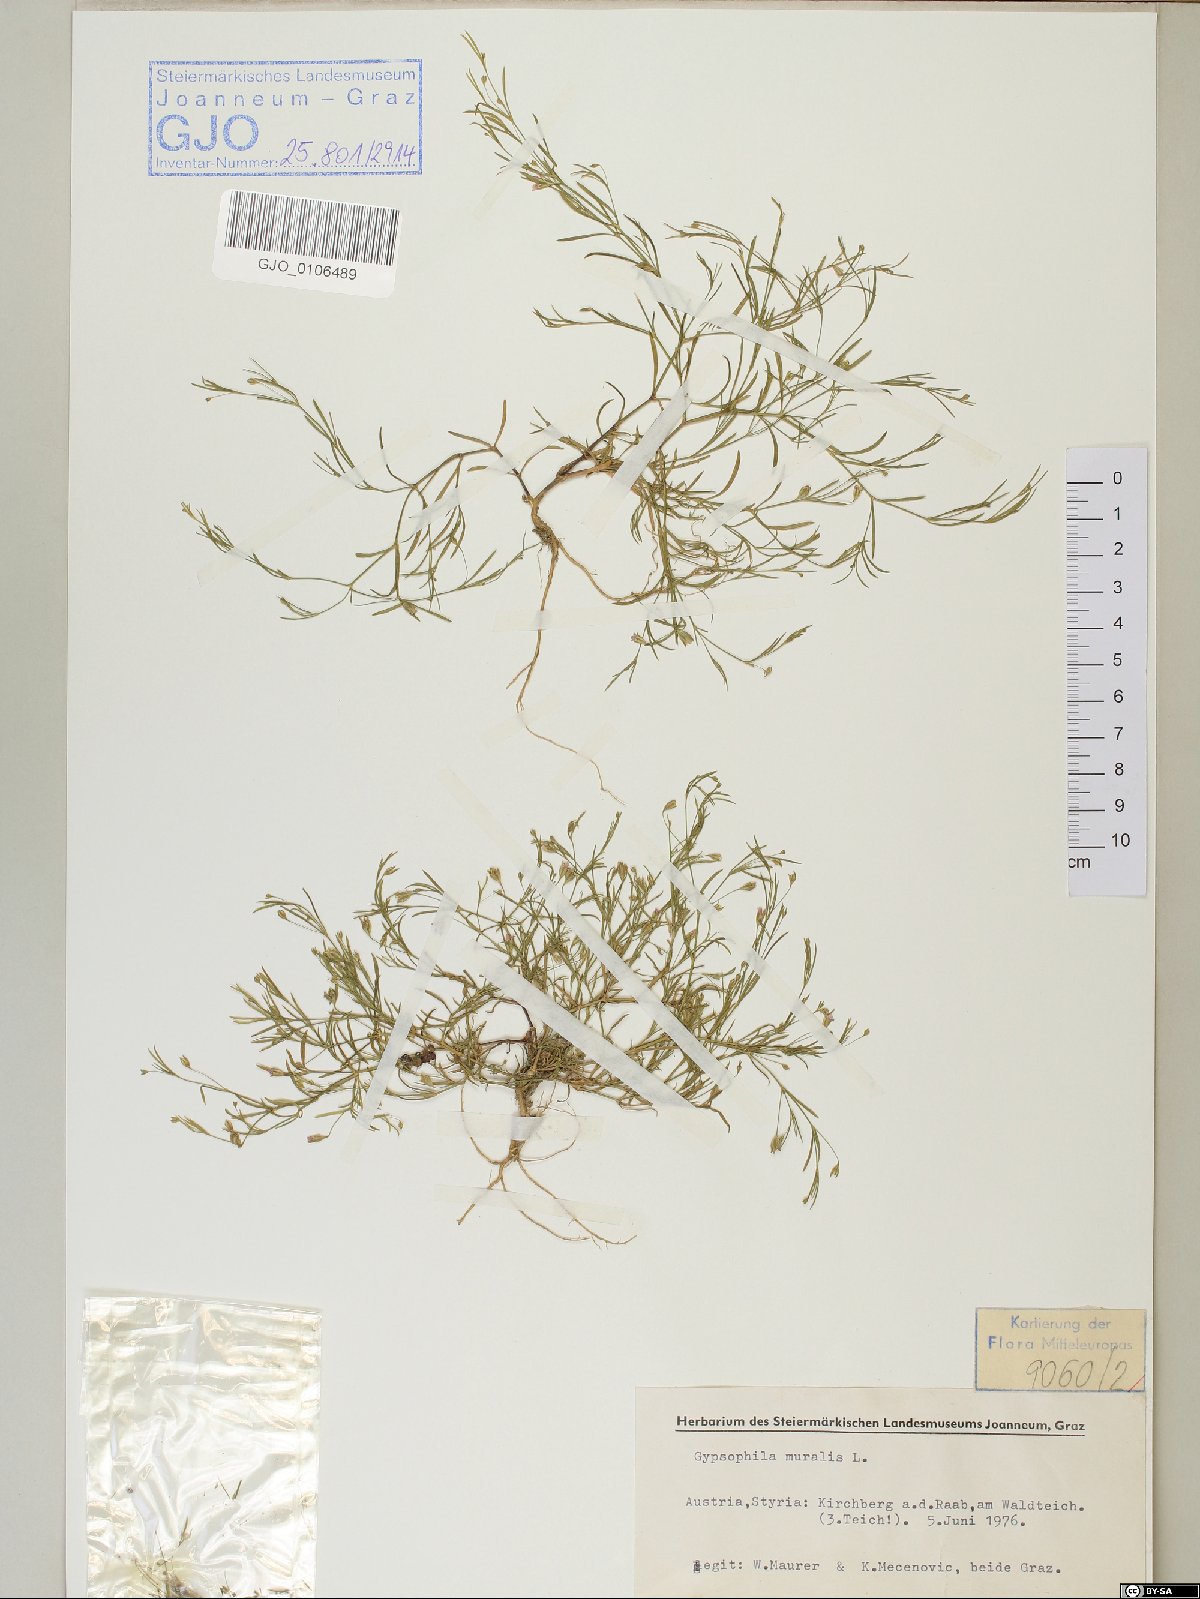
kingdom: Plantae
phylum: Tracheophyta
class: Magnoliopsida
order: Caryophyllales
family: Caryophyllaceae
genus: Psammophiliella
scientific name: Psammophiliella muralis
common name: Cushion baby's-breath
